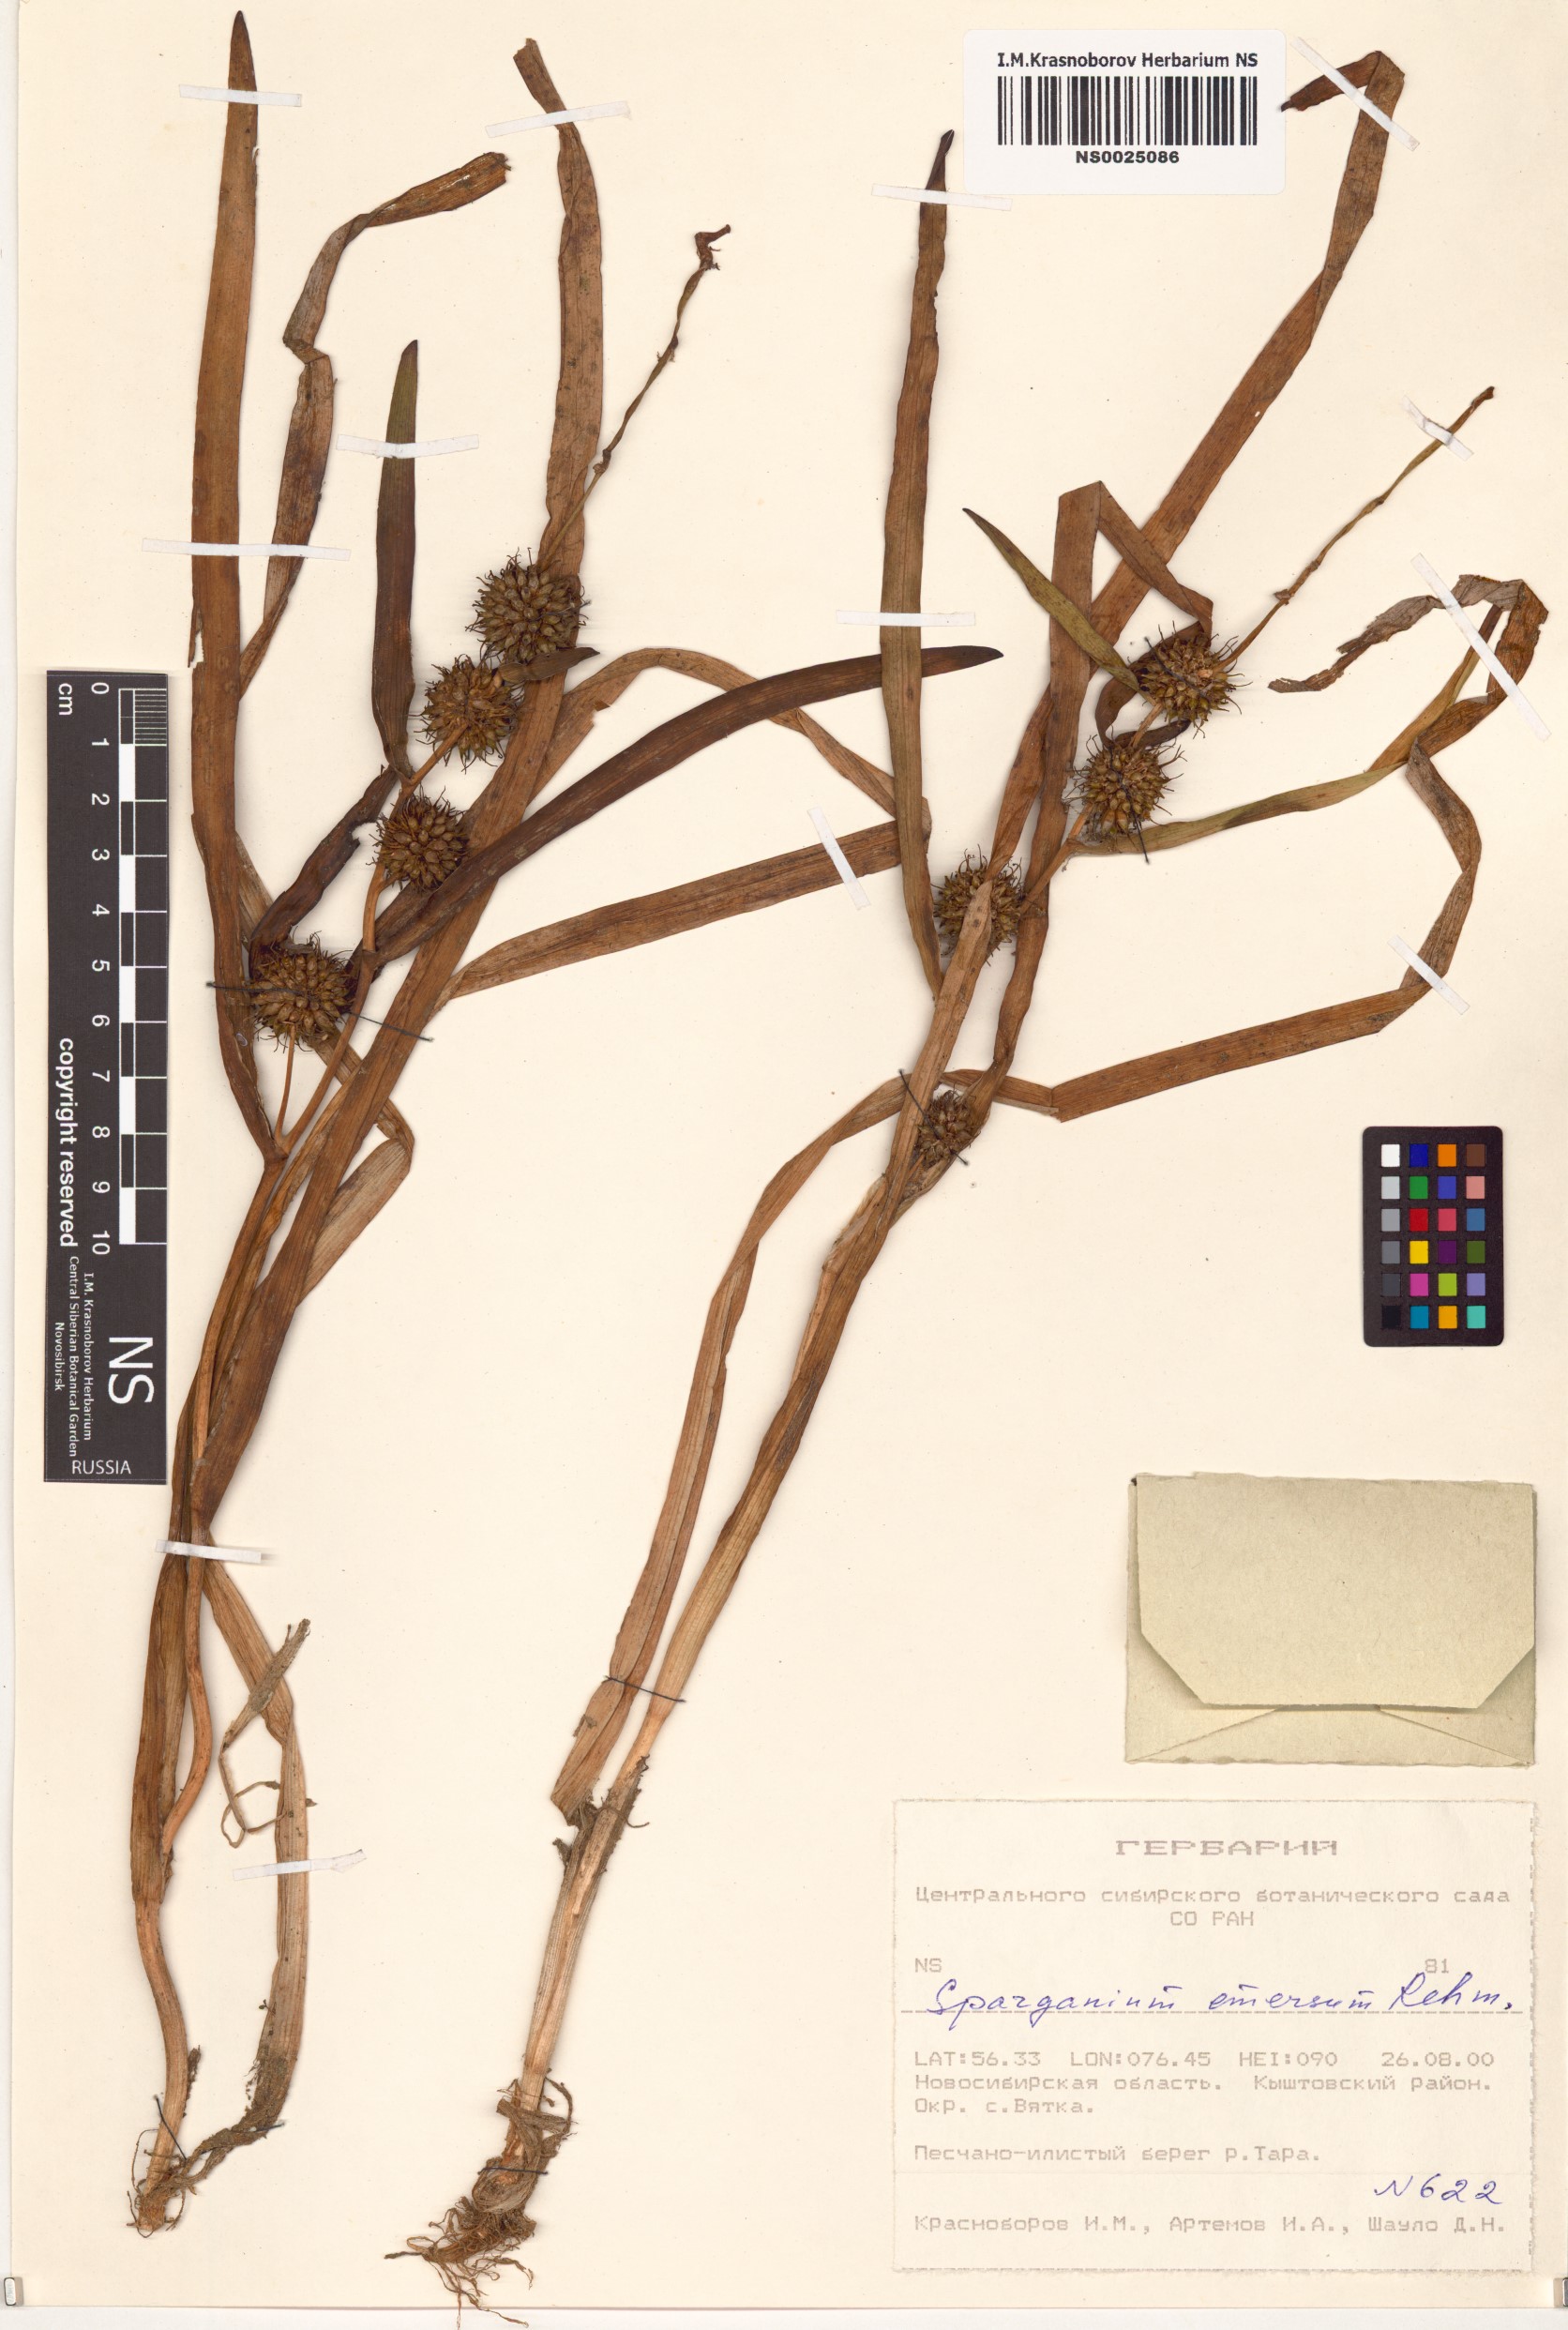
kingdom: Plantae
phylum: Tracheophyta
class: Liliopsida
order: Poales
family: Typhaceae
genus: Sparganium
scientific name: Sparganium emersum
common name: Unbranched bur-reed
